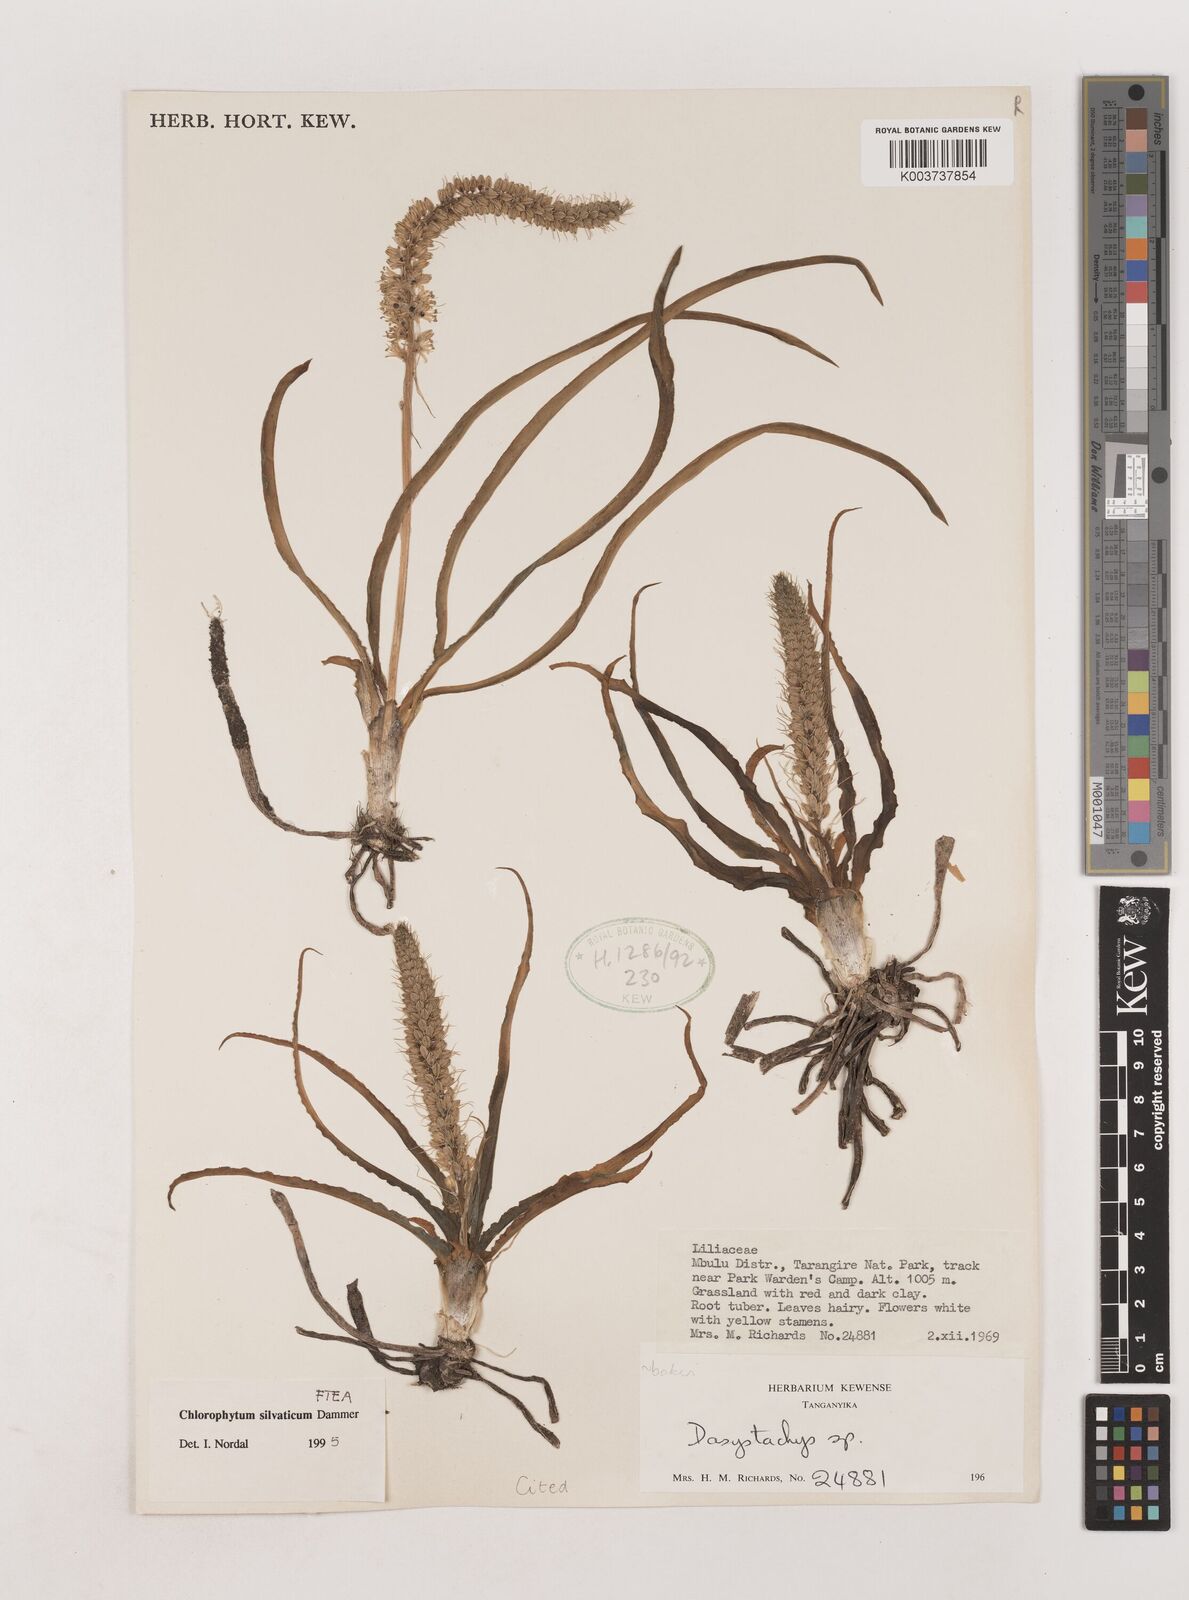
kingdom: Plantae
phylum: Tracheophyta
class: Liliopsida
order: Asparagales
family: Asparagaceae
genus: Chlorophytum
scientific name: Chlorophytum africanum
